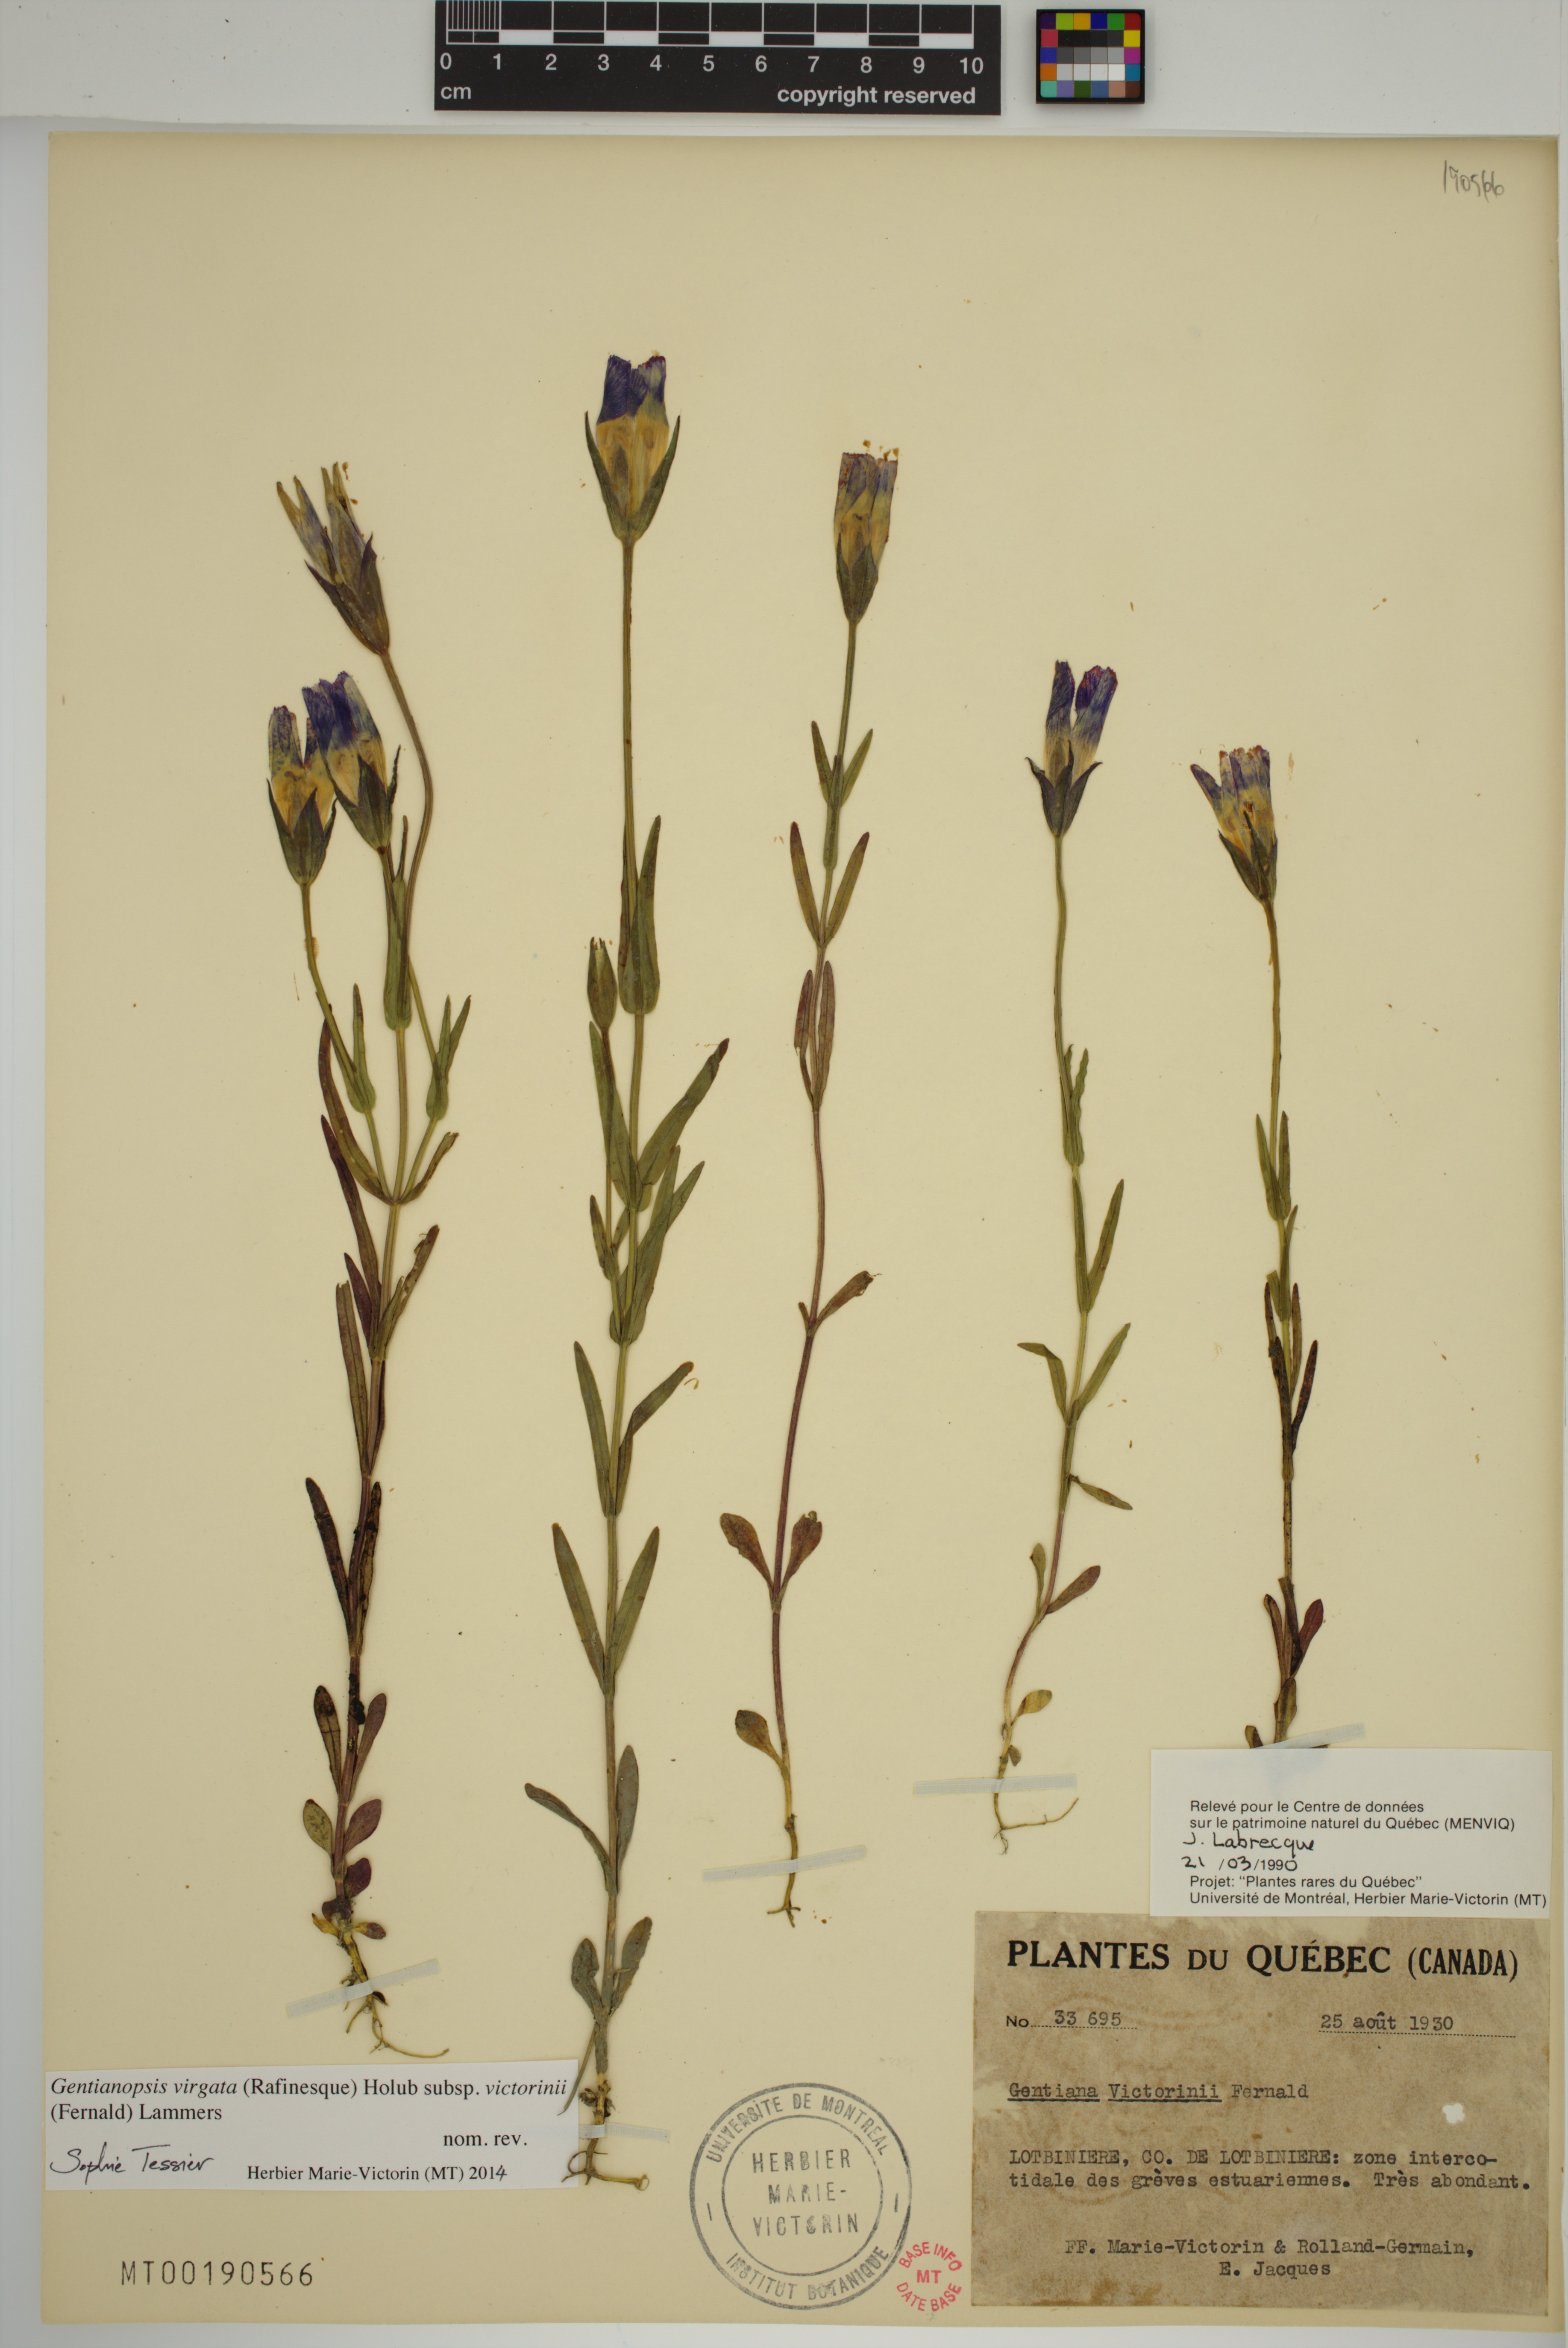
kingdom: Plantae
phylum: Tracheophyta
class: Magnoliopsida
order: Gentianales
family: Gentianaceae
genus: Gentianopsis
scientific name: Gentianopsis victorinii
